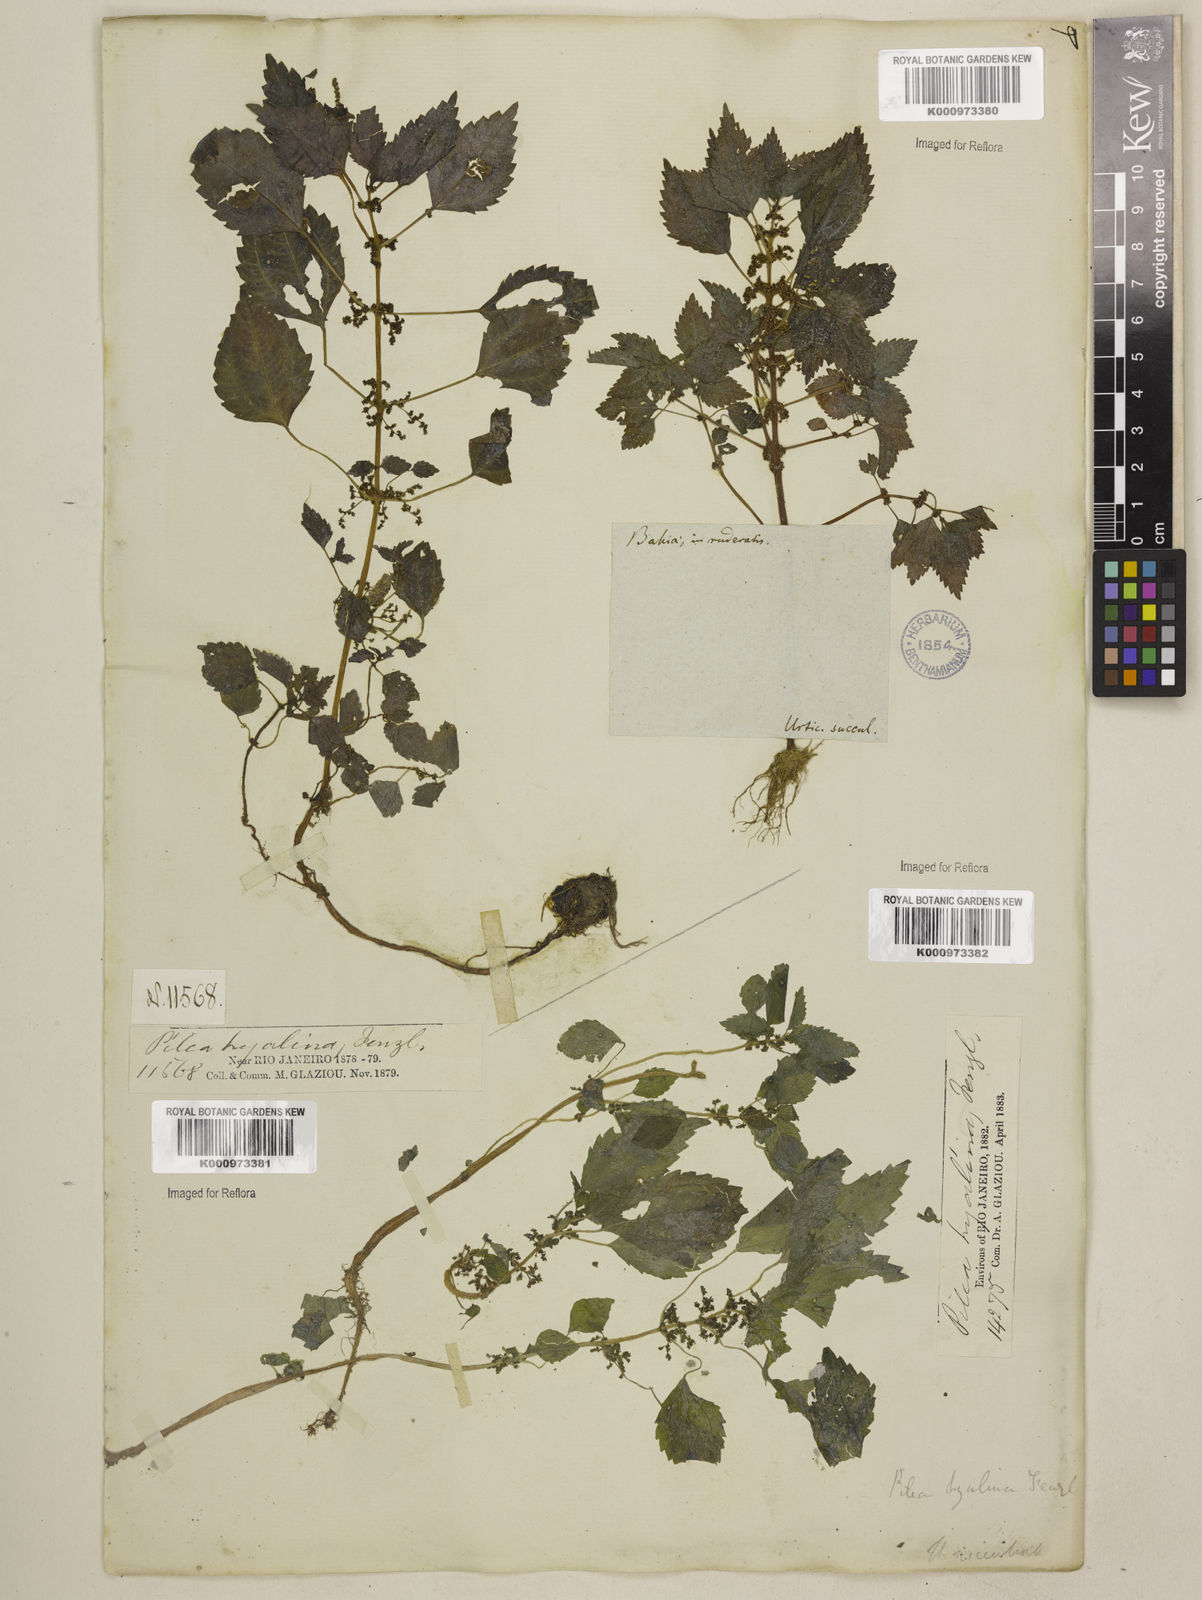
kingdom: Plantae
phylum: Tracheophyta
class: Magnoliopsida
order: Rosales
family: Urticaceae
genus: Pilea
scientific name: Pilea hyalina
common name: Virdrillo
